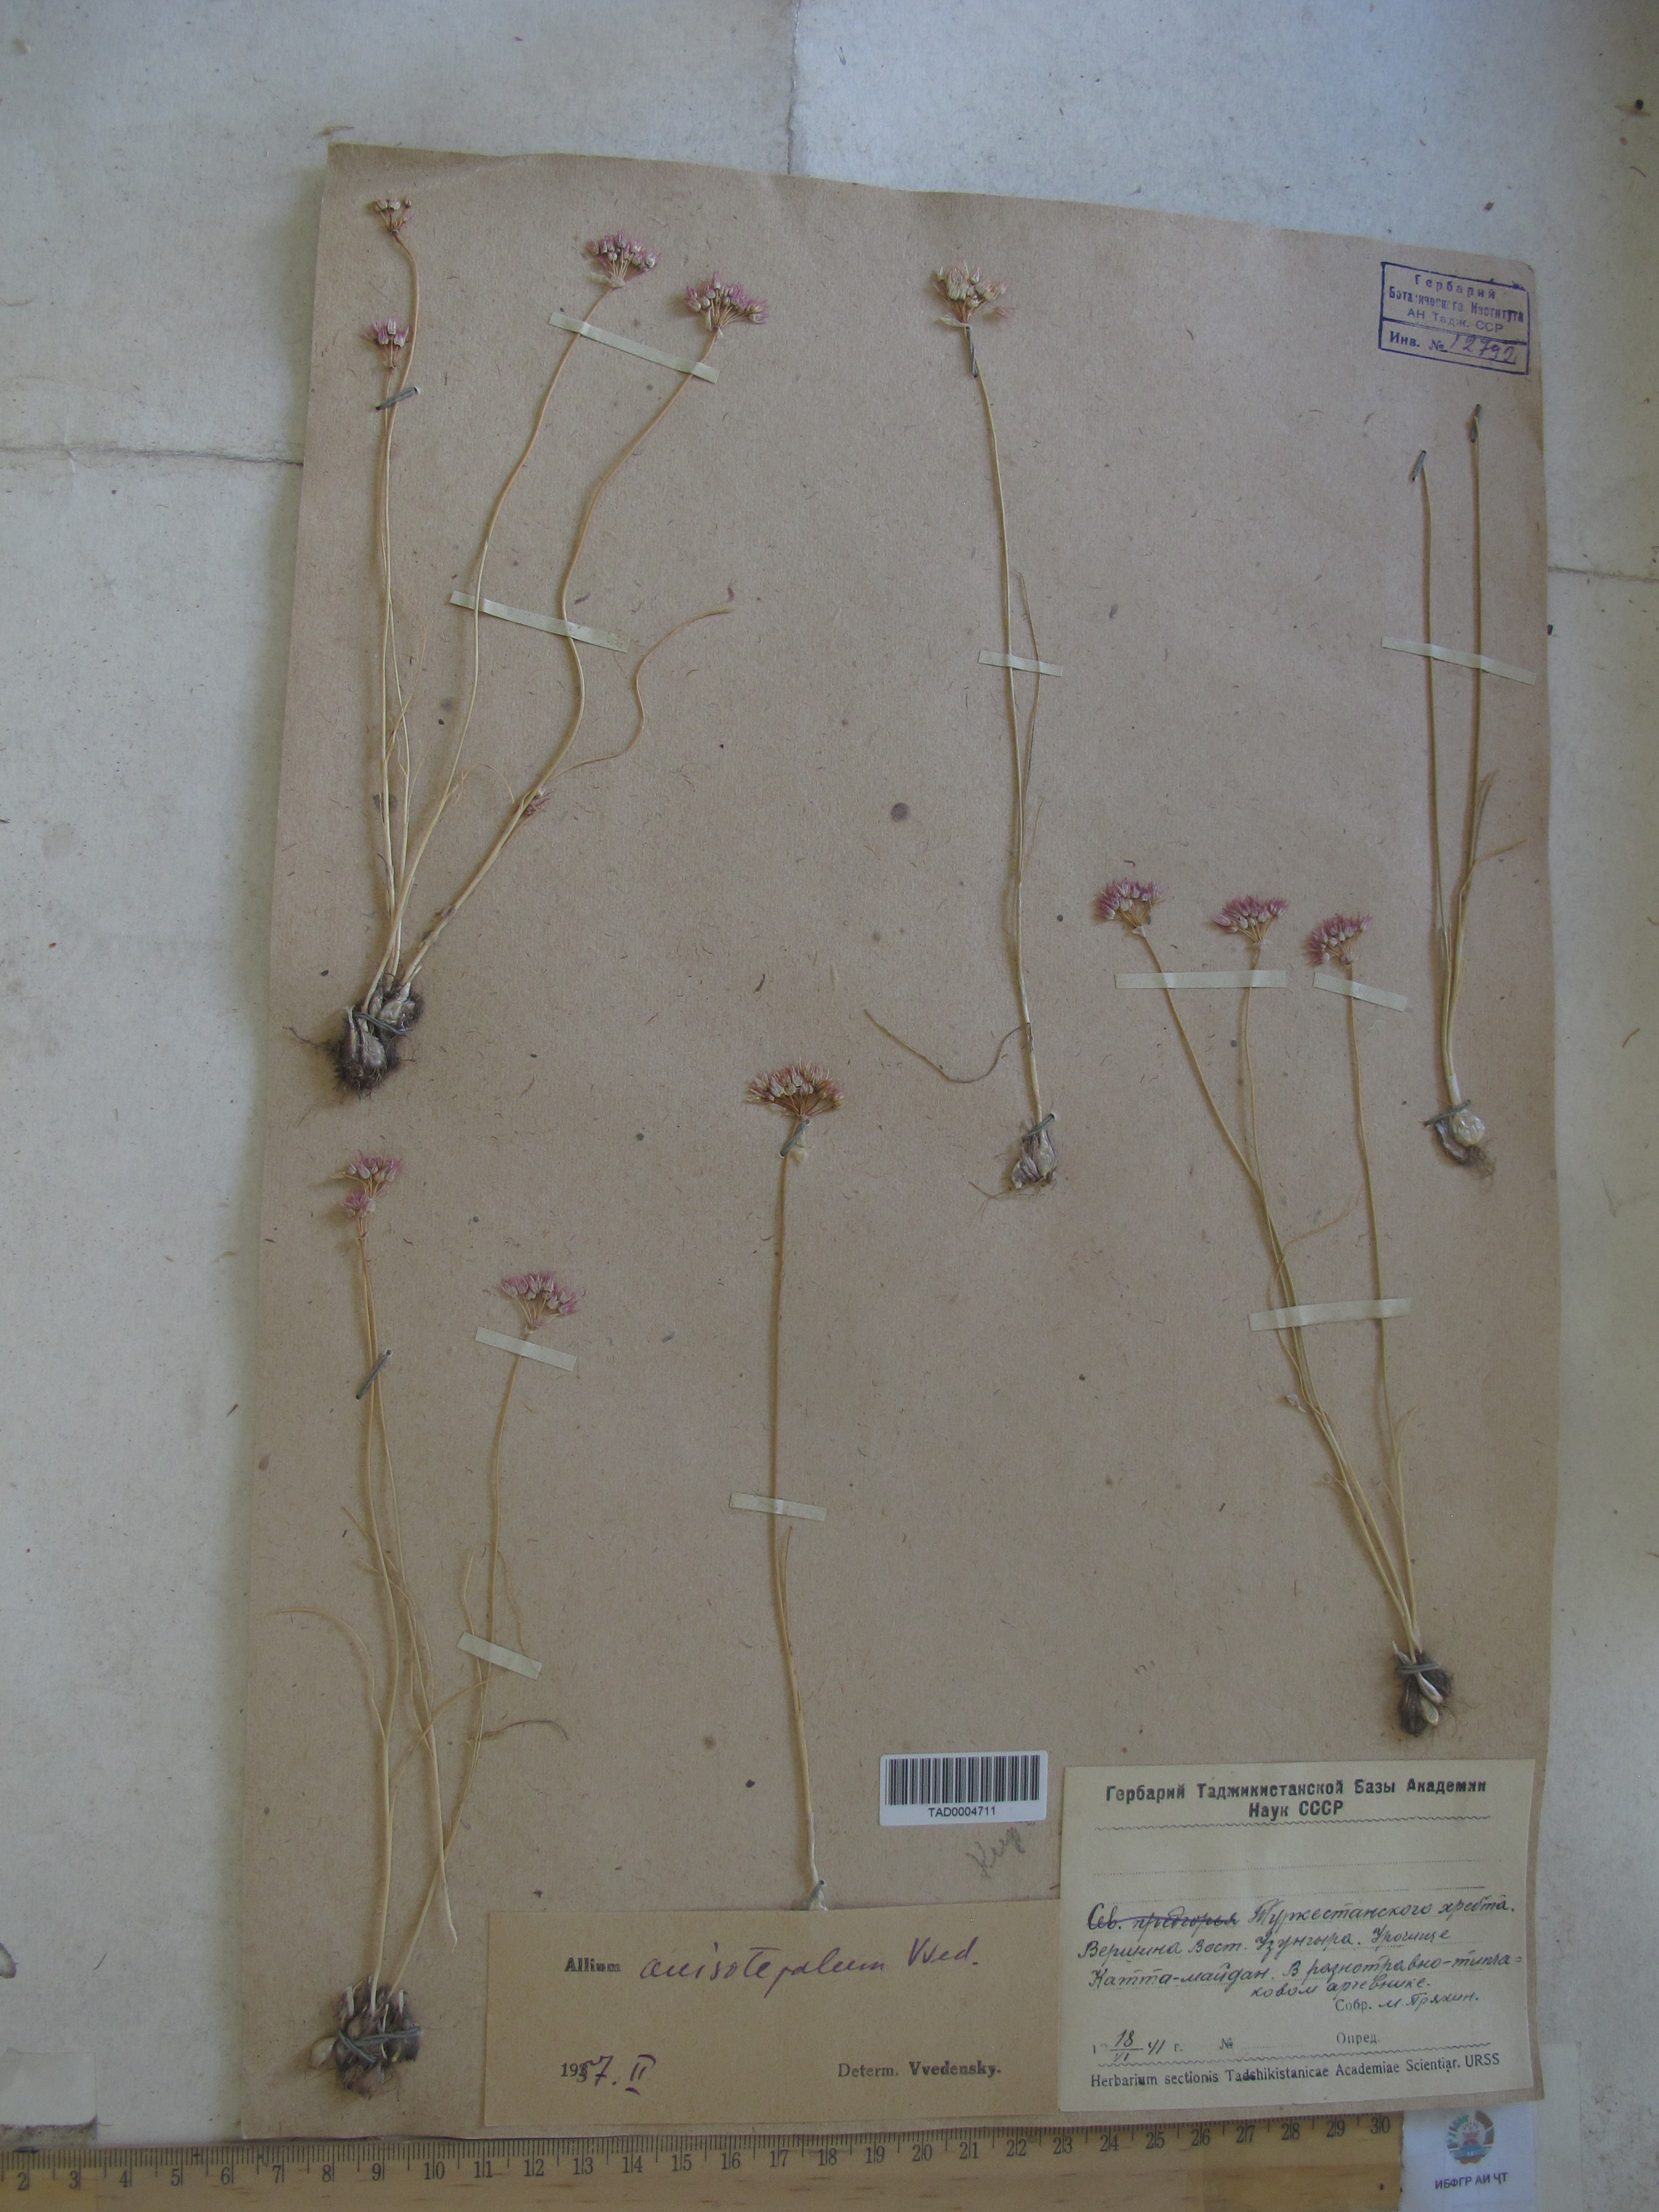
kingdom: Plantae
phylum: Tracheophyta
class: Liliopsida
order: Asparagales
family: Amaryllidaceae
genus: Allium
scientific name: Allium anisotepalum
